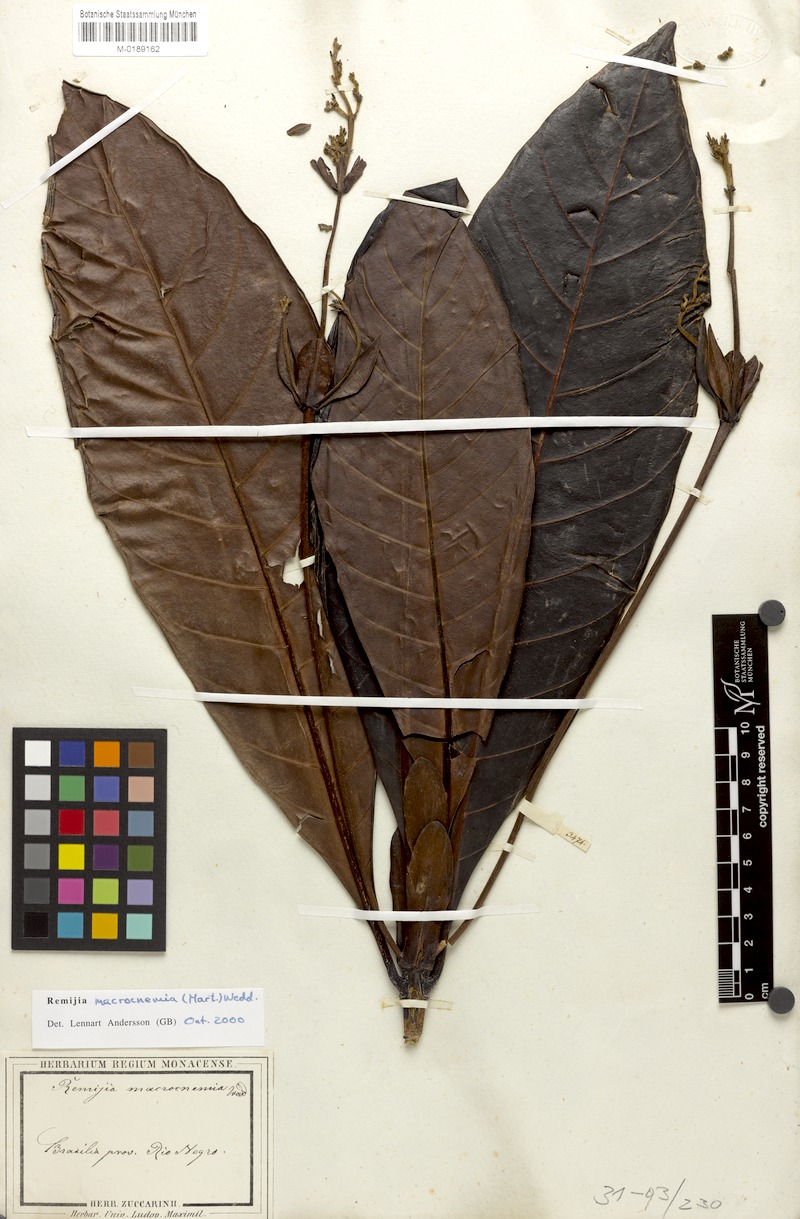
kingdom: Plantae
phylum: Tracheophyta
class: Magnoliopsida
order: Gentianales
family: Rubiaceae
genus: Remijia
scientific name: Remijia macrocnemia
